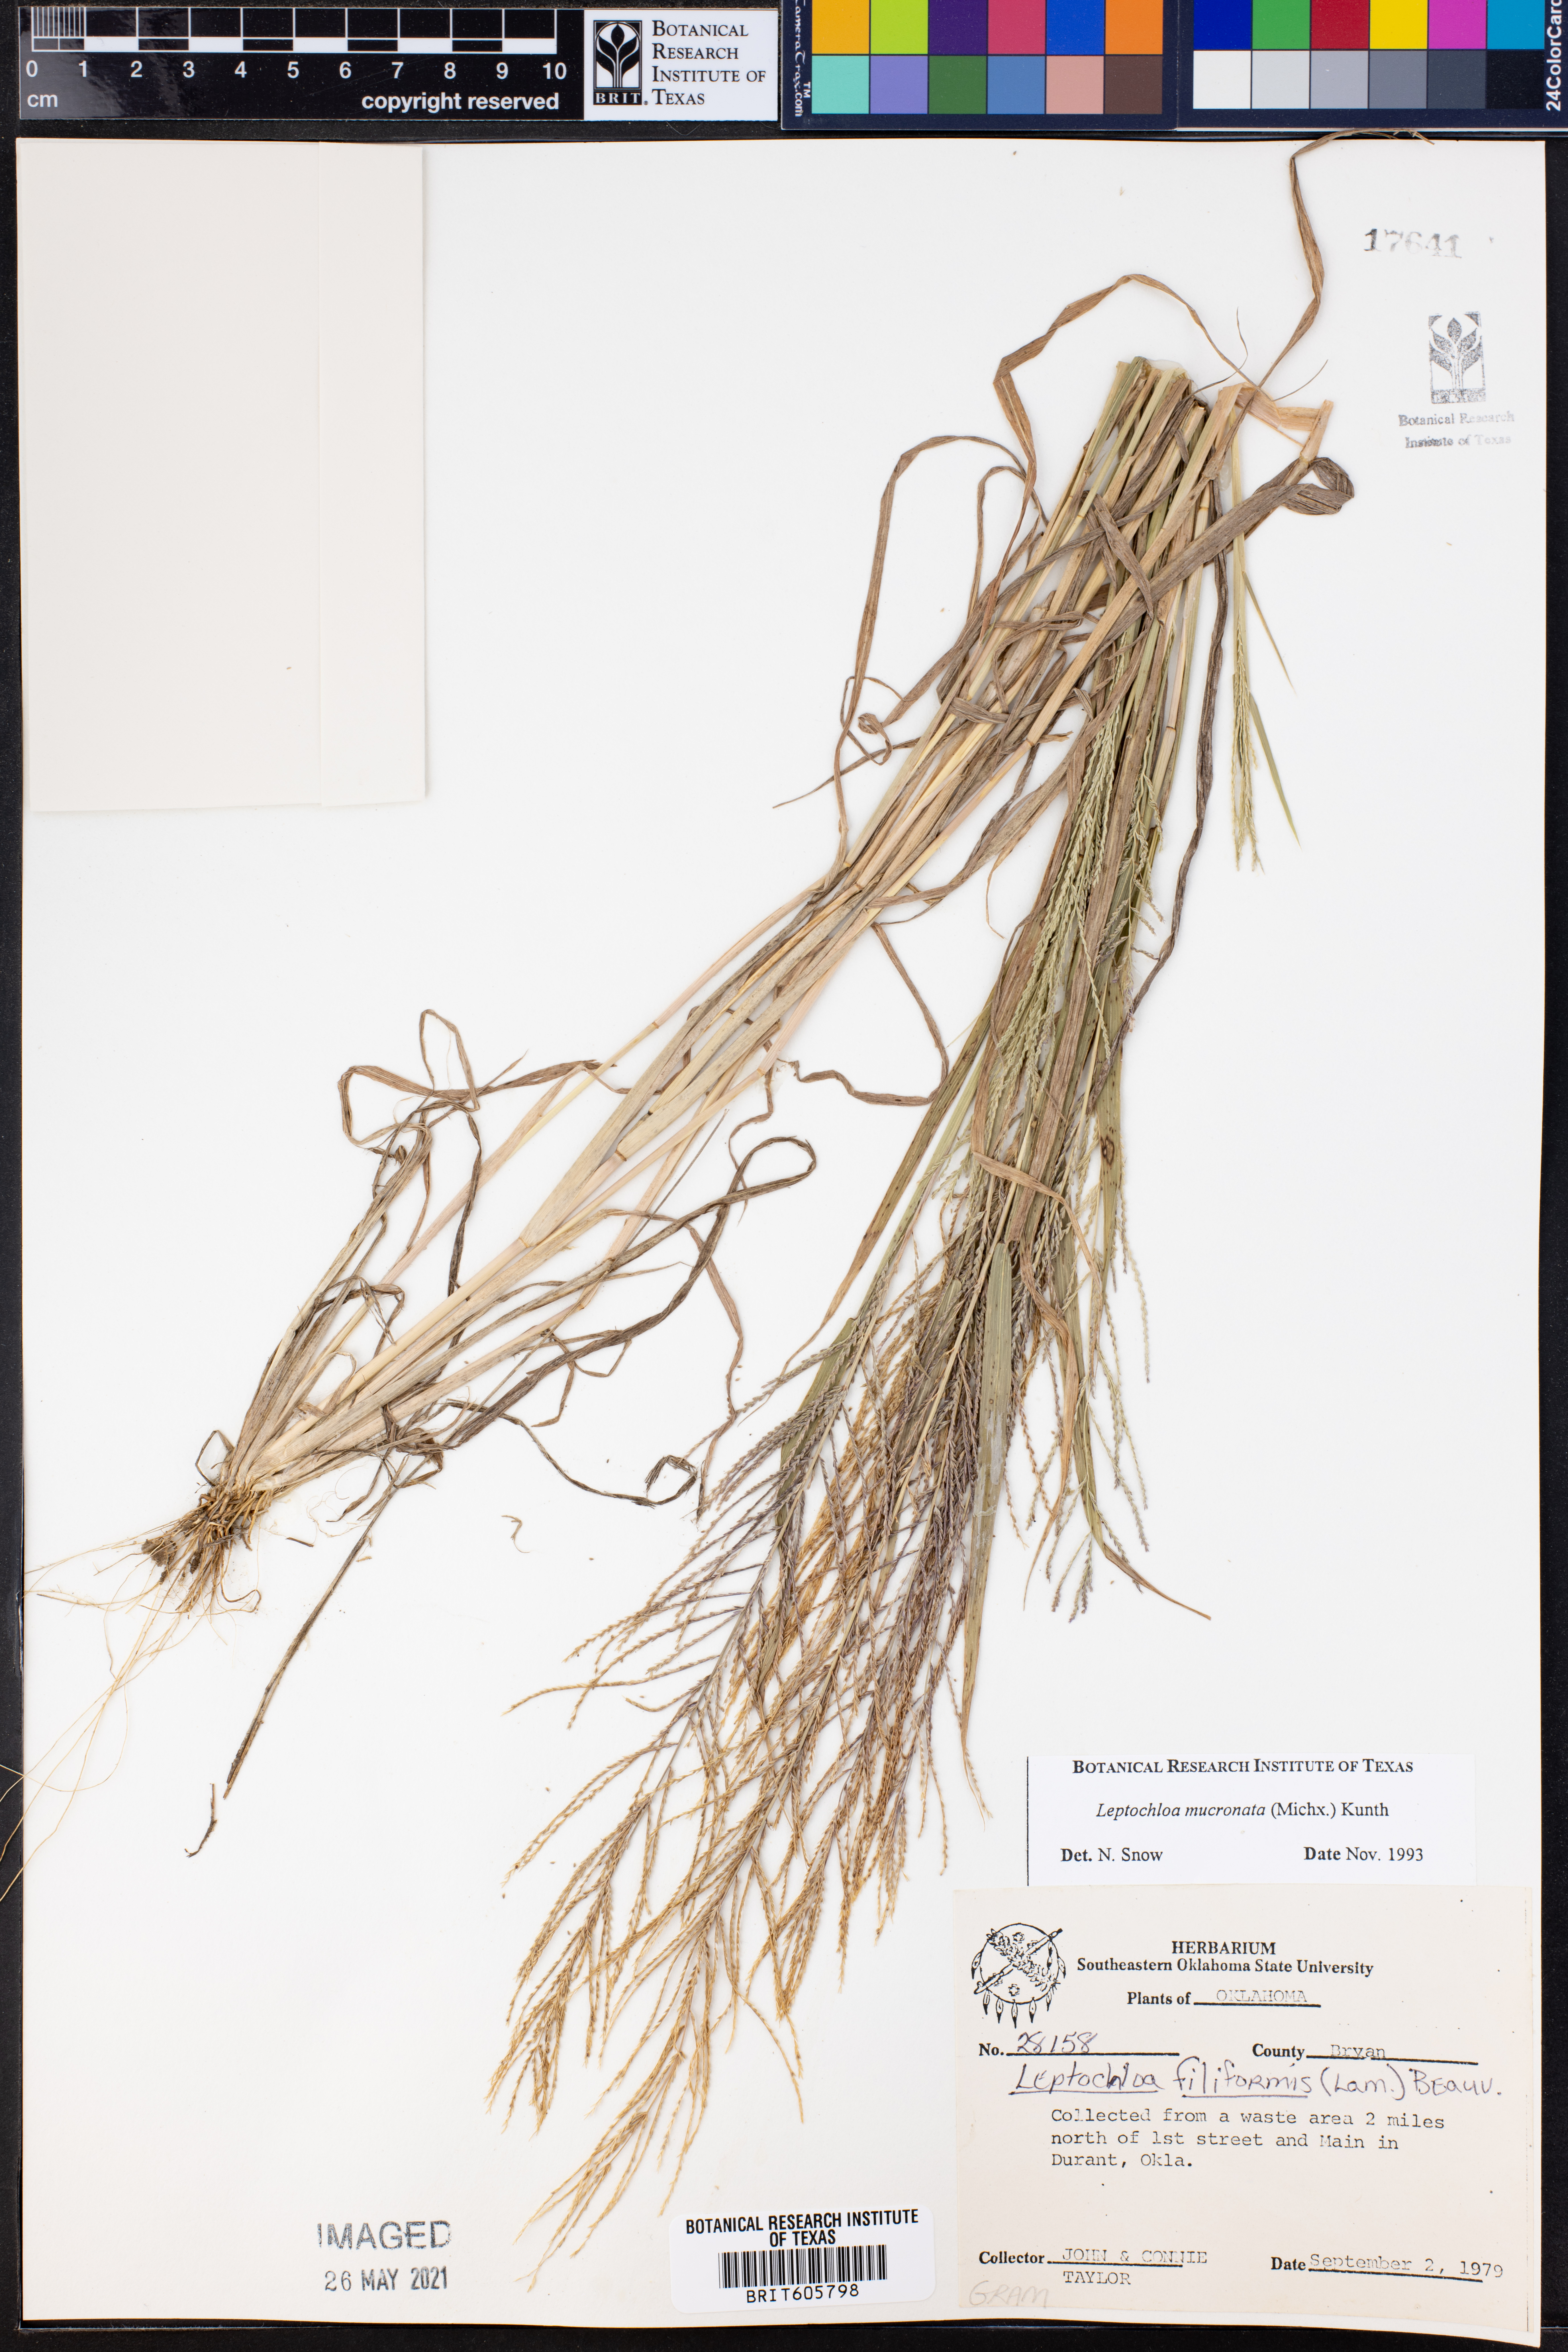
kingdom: Plantae
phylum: Tracheophyta
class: Liliopsida
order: Poales
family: Poaceae
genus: Leptochloa
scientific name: Leptochloa mucronata
